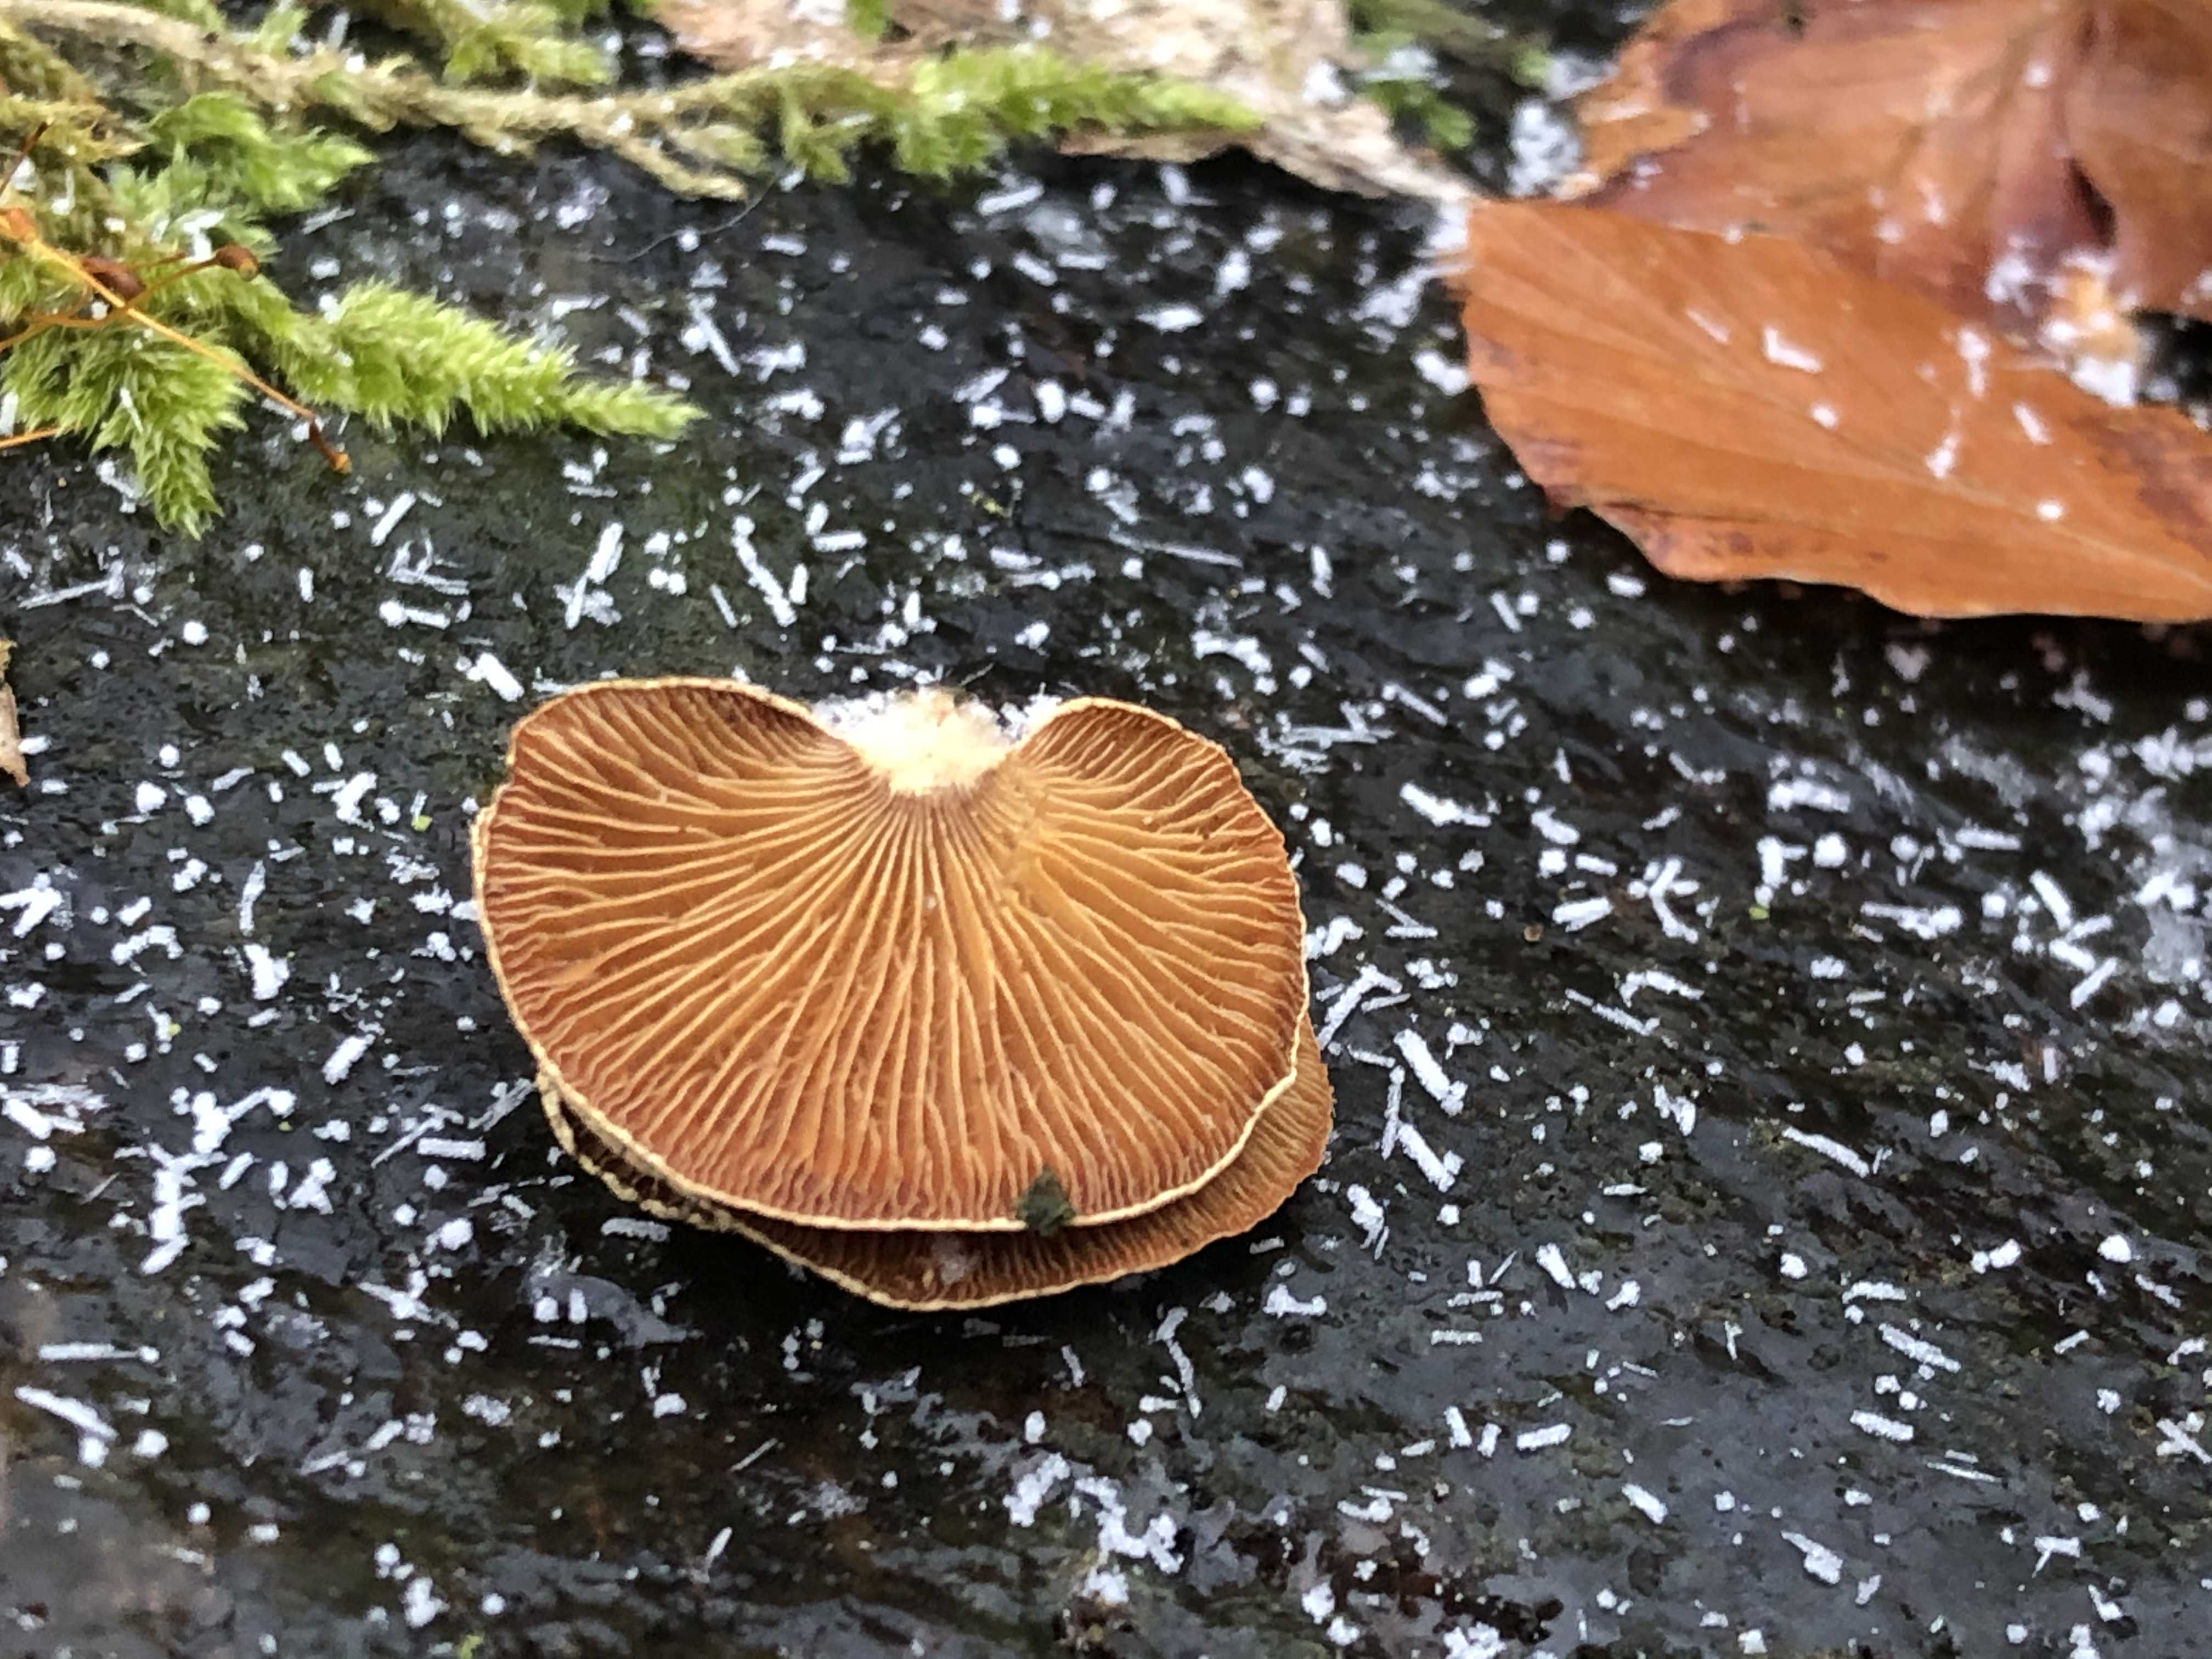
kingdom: Fungi
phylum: Basidiomycota
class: Agaricomycetes
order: Agaricales
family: Mycenaceae
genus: Panellus
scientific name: Panellus stipticus
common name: kliddet epaulethat
